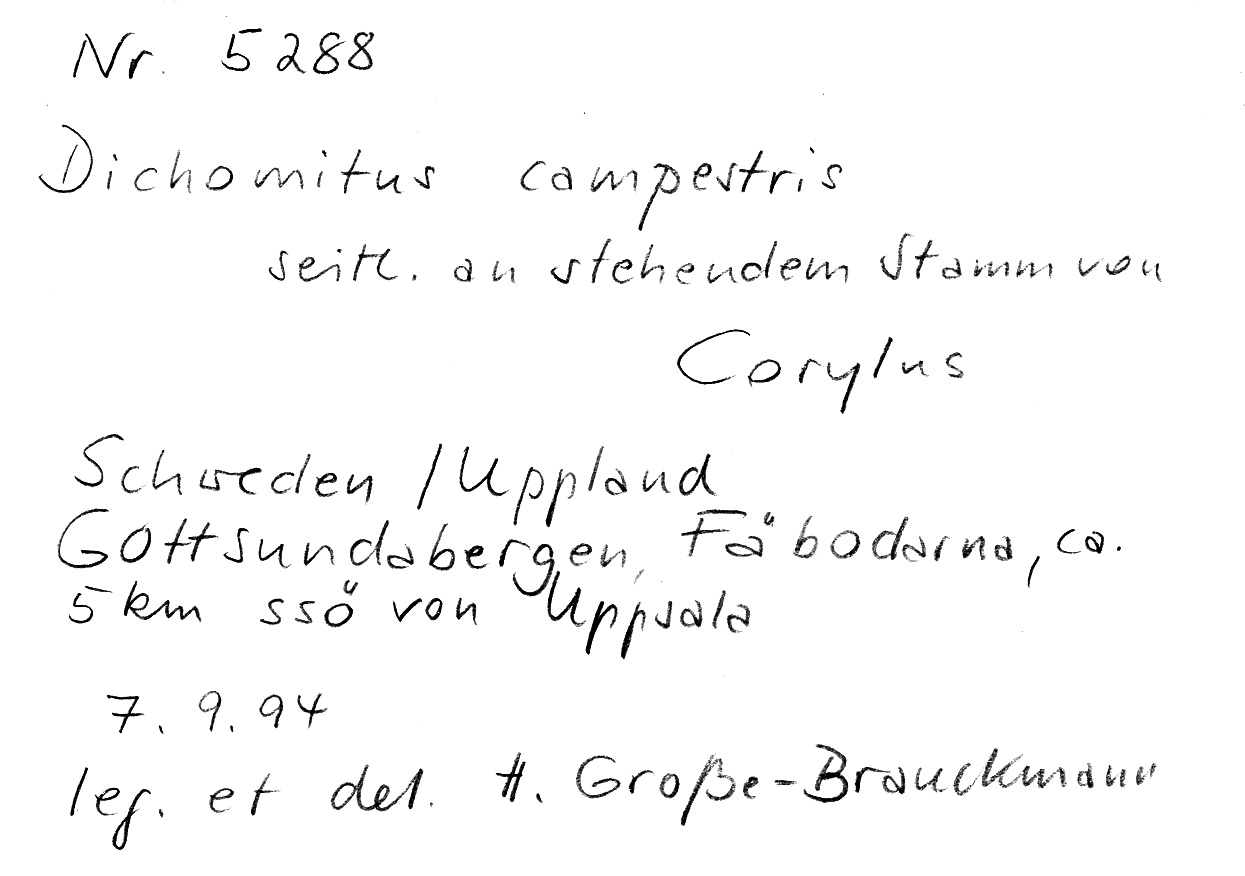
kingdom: Fungi
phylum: Basidiomycota
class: Agaricomycetes
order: Polyporales
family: Polyporaceae
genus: Szczepkamyces
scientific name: Szczepkamyces campestris
